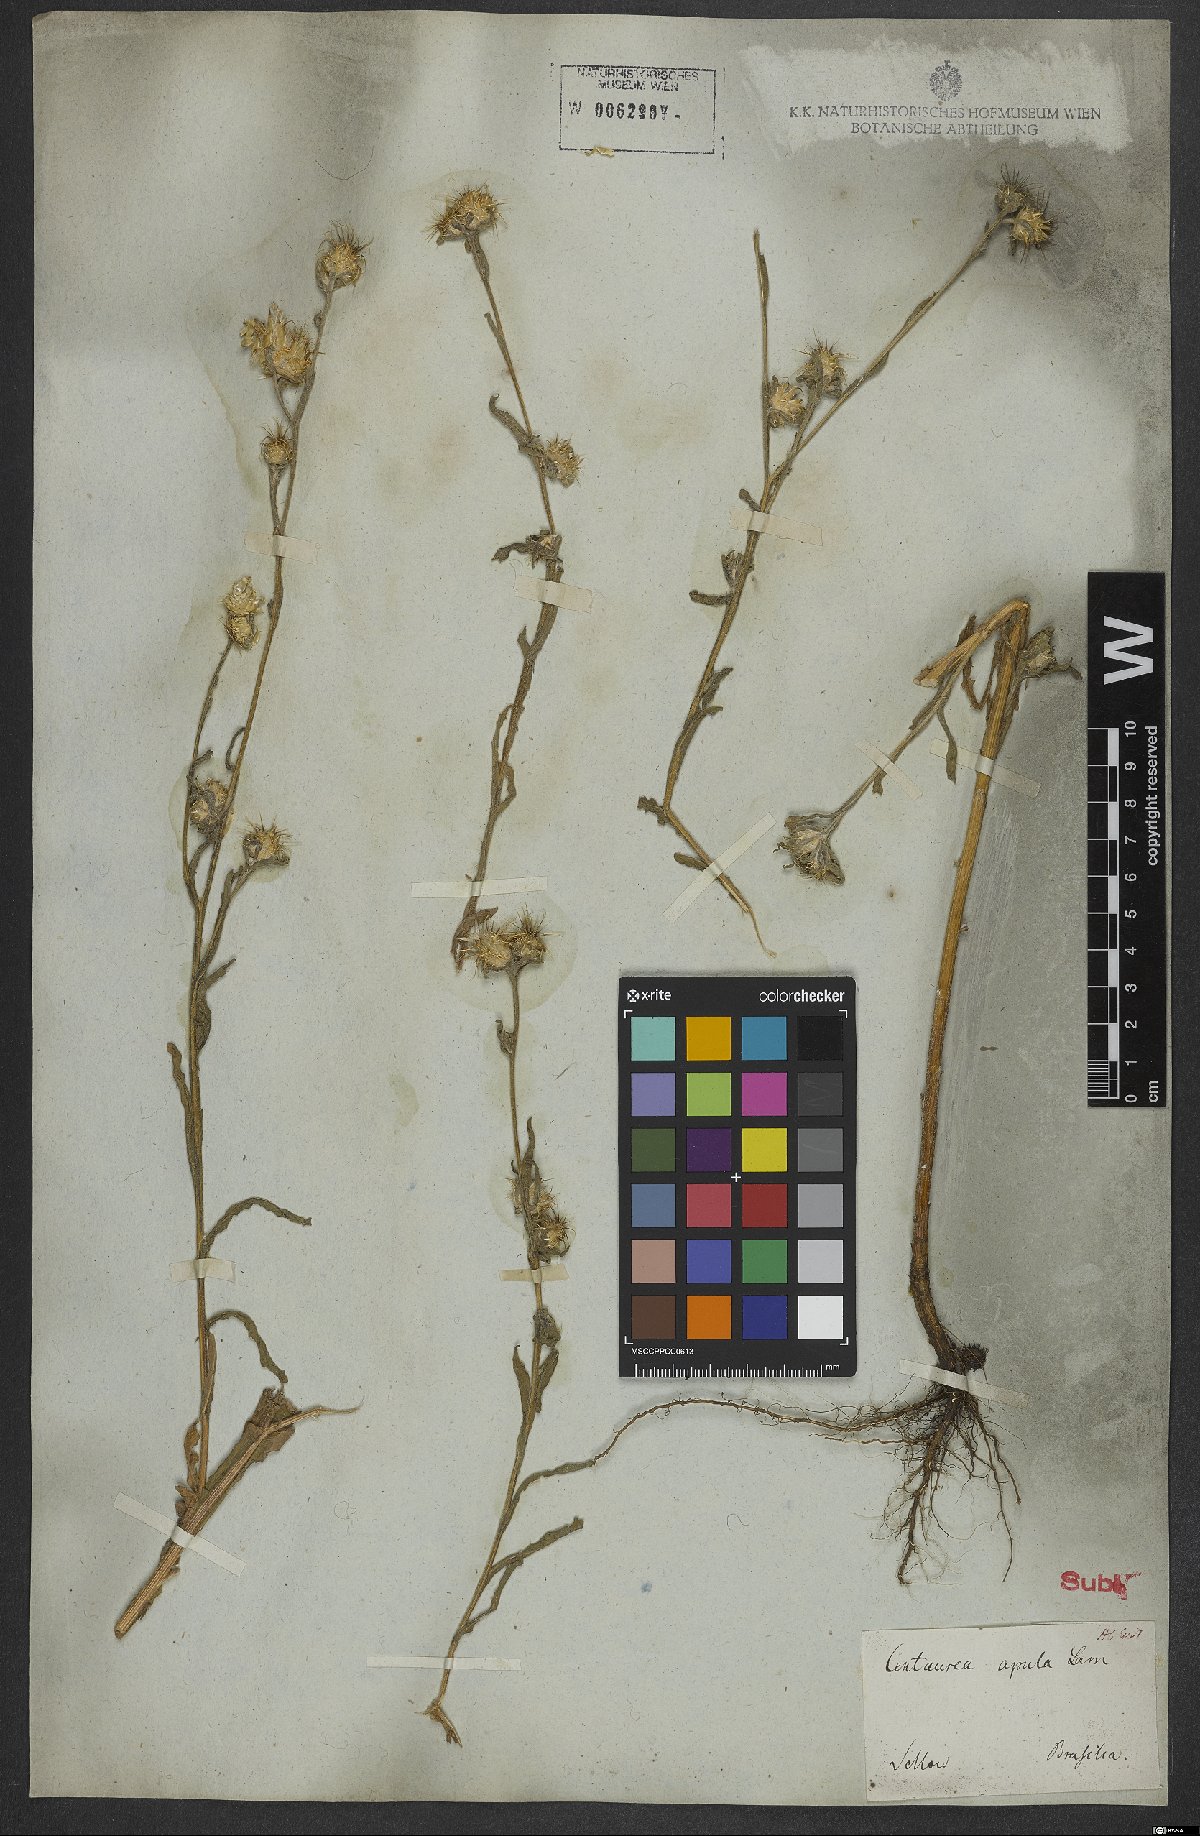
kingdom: Plantae
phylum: Tracheophyta
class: Magnoliopsida
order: Asterales
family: Asteraceae
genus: Centaurea
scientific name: Centaurea melitensis
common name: Maltese star-thistle
